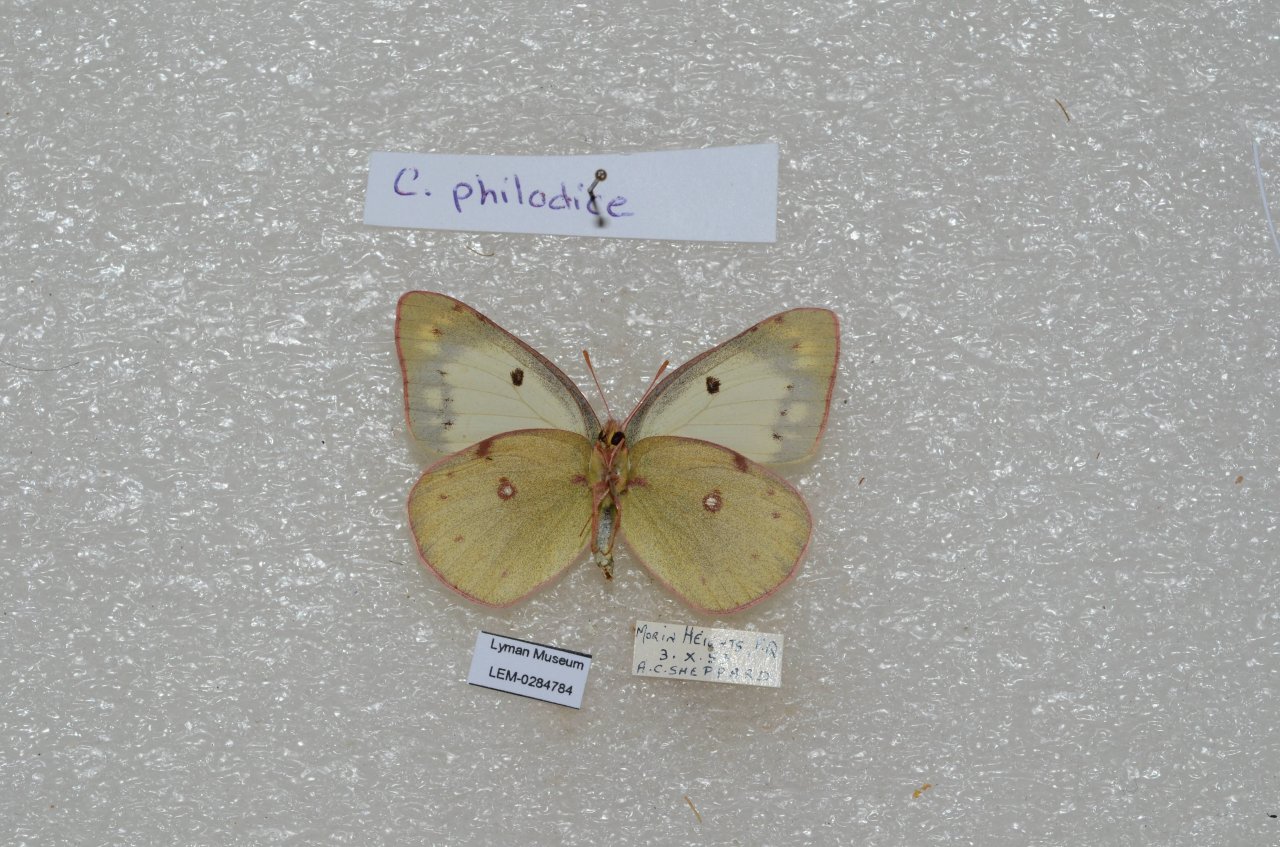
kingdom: Animalia
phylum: Arthropoda
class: Insecta
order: Lepidoptera
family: Pieridae
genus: Colias
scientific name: Colias philodice
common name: Clouded Sulphur
